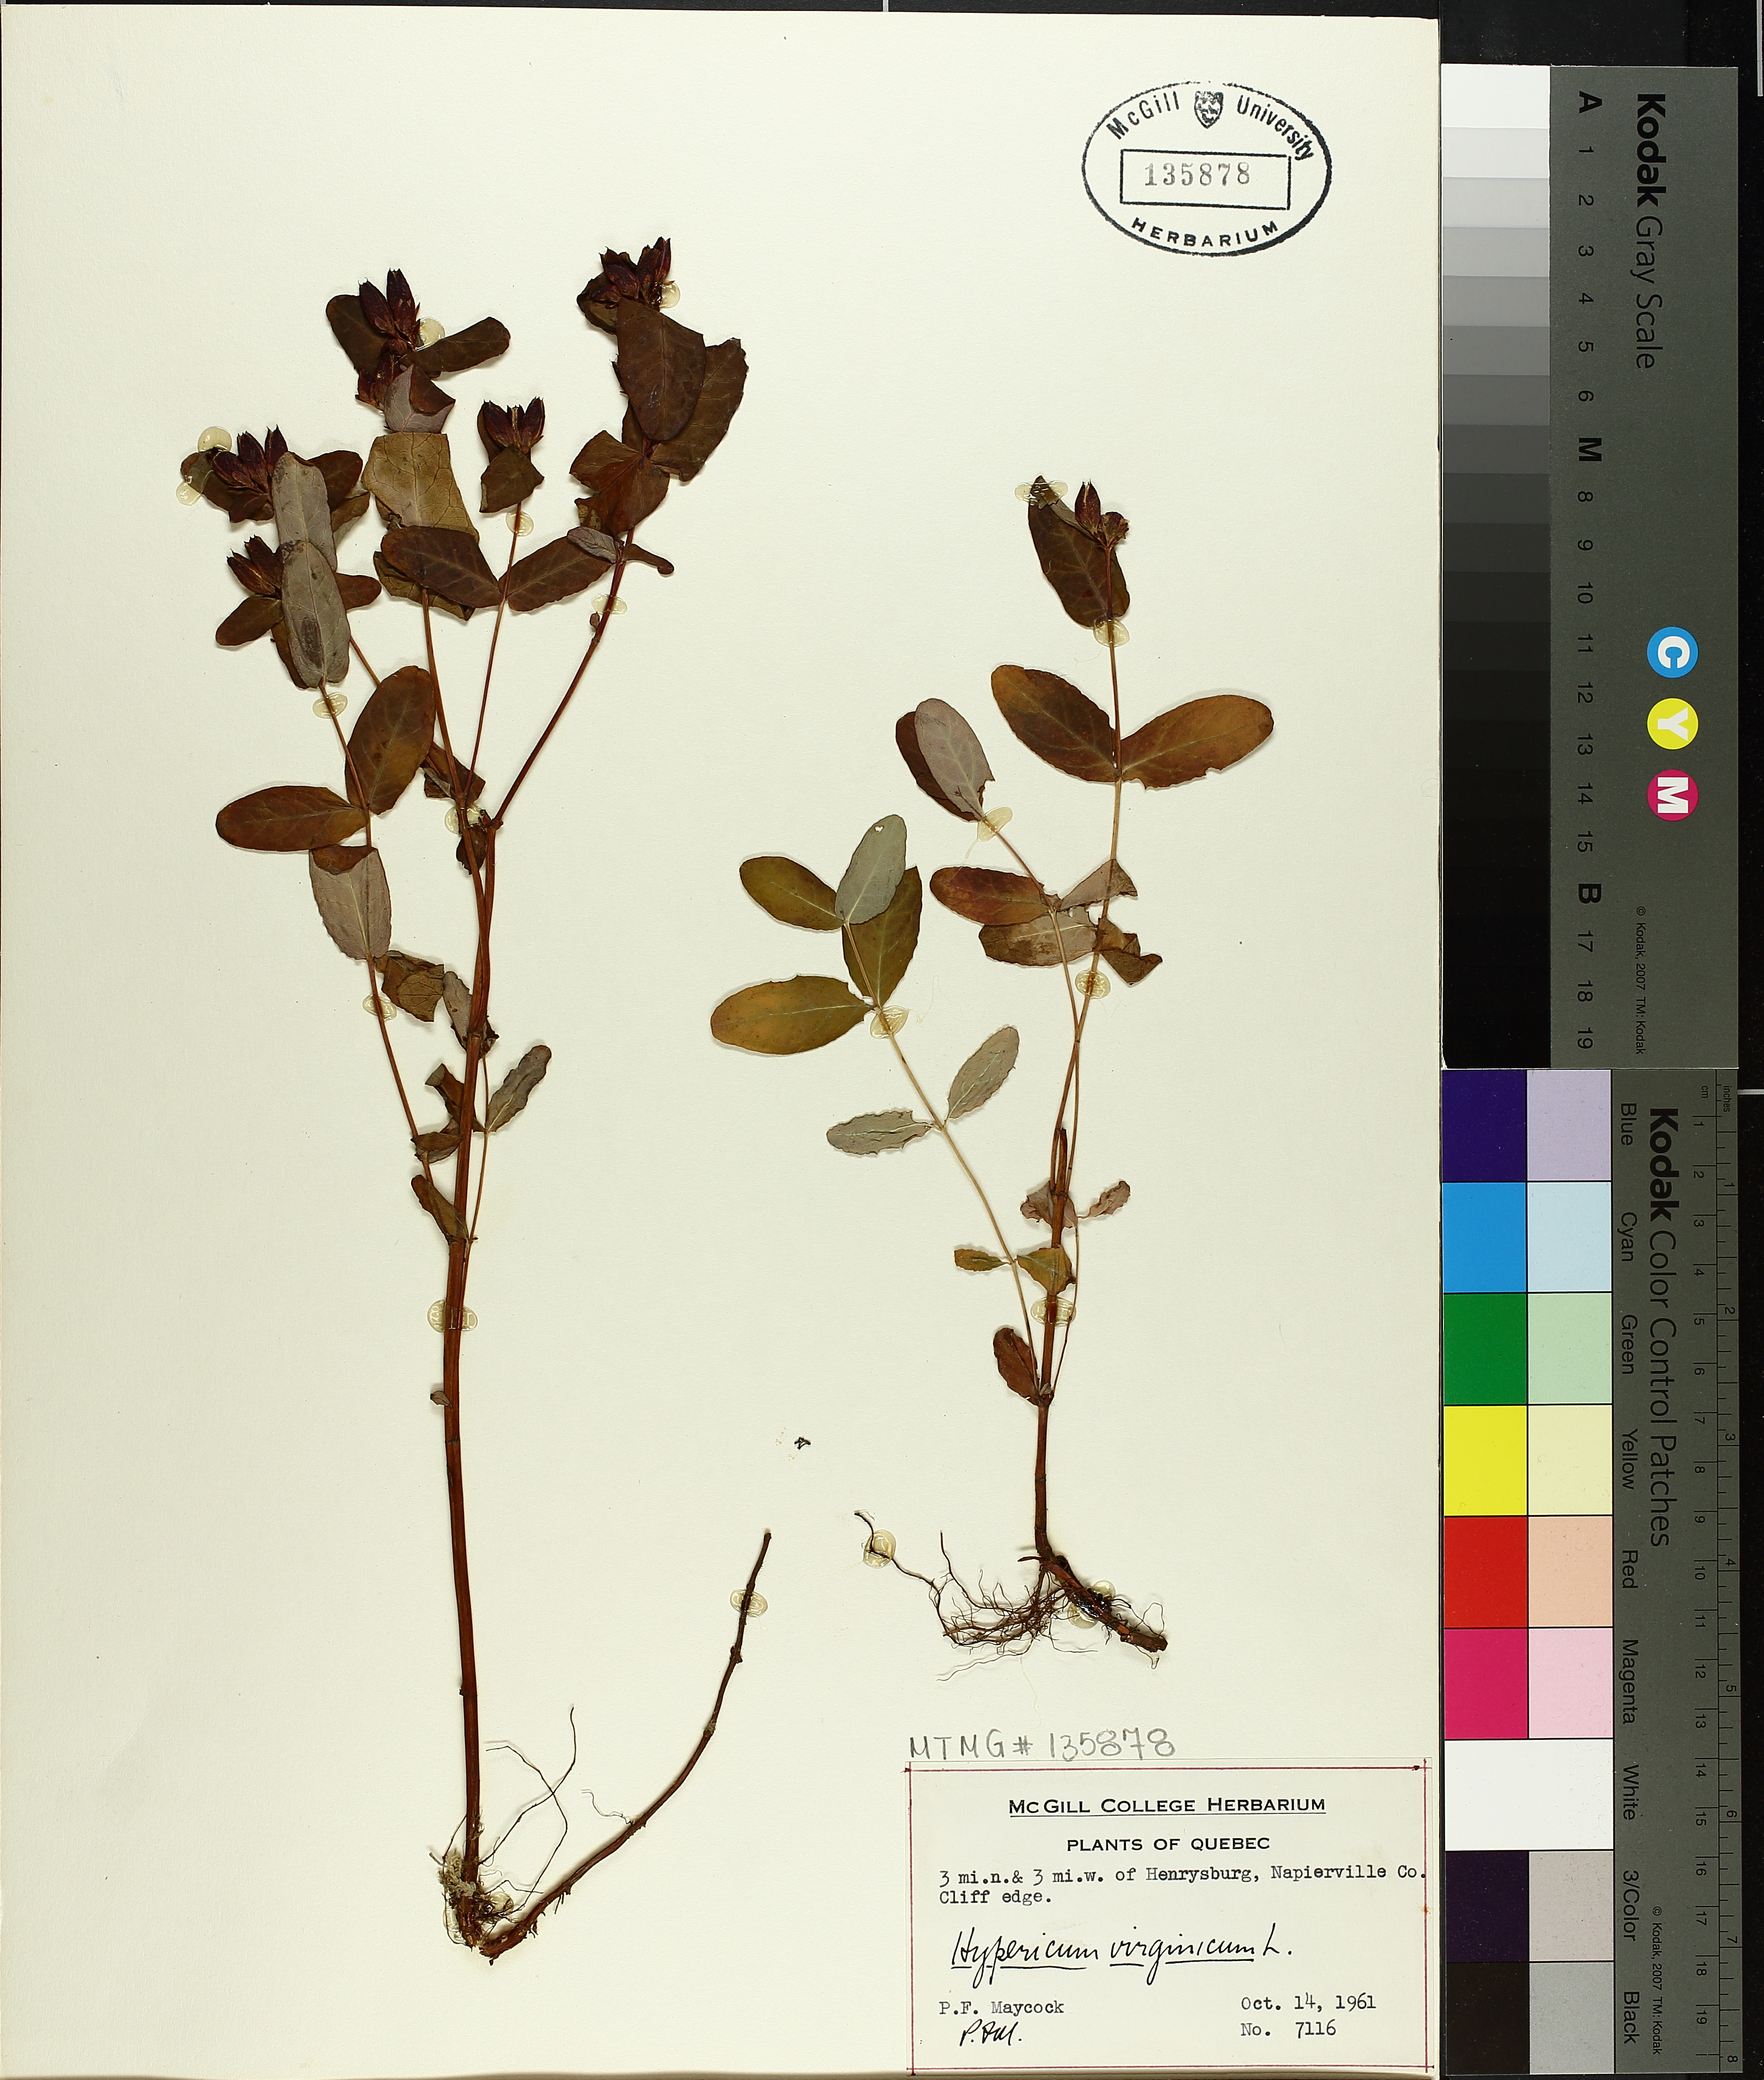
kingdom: Plantae
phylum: Tracheophyta
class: Magnoliopsida
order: Malpighiales
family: Hypericaceae
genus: Triadenum
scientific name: Triadenum virginicum
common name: Marsh st. john's-wort
